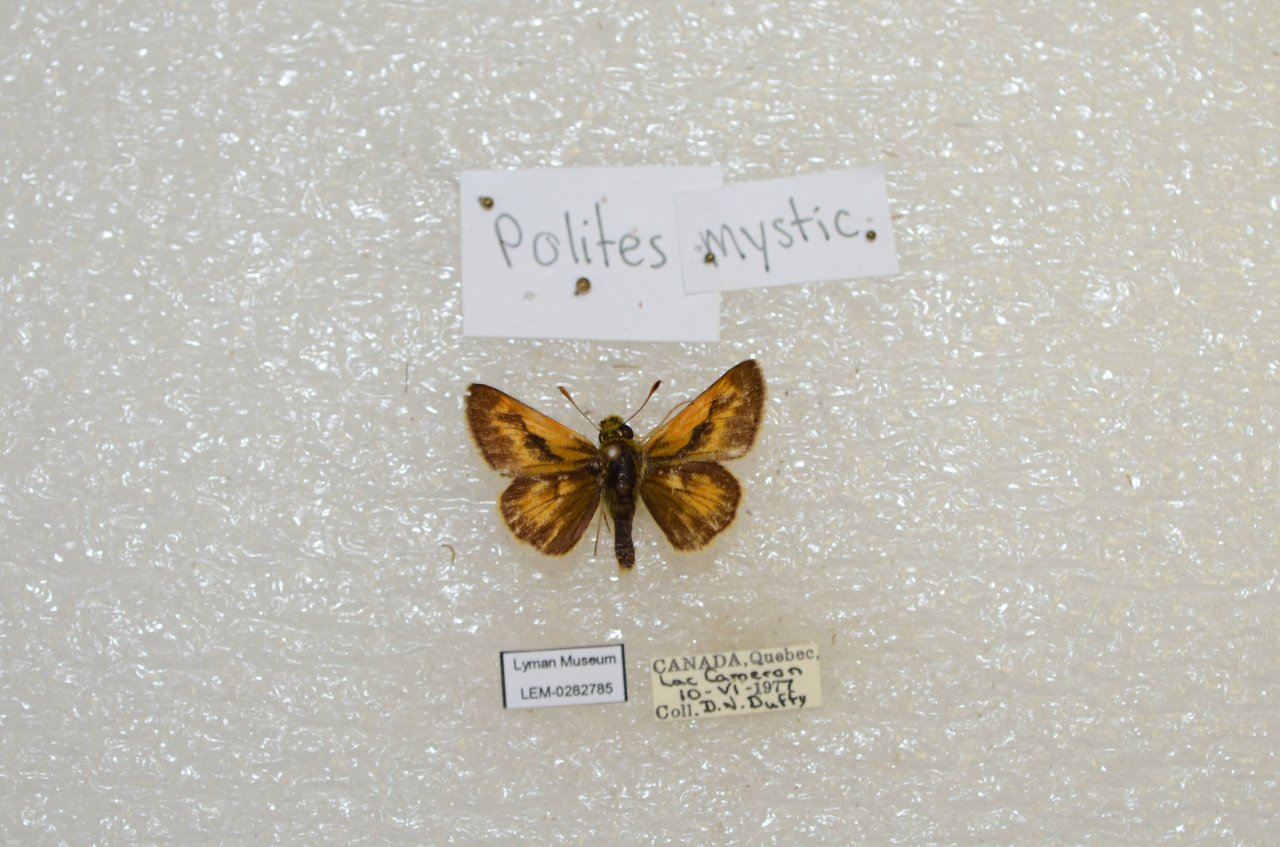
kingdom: Animalia
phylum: Arthropoda
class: Insecta
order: Lepidoptera
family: Hesperiidae
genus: Polites
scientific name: Polites
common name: Long Dash Skipper
